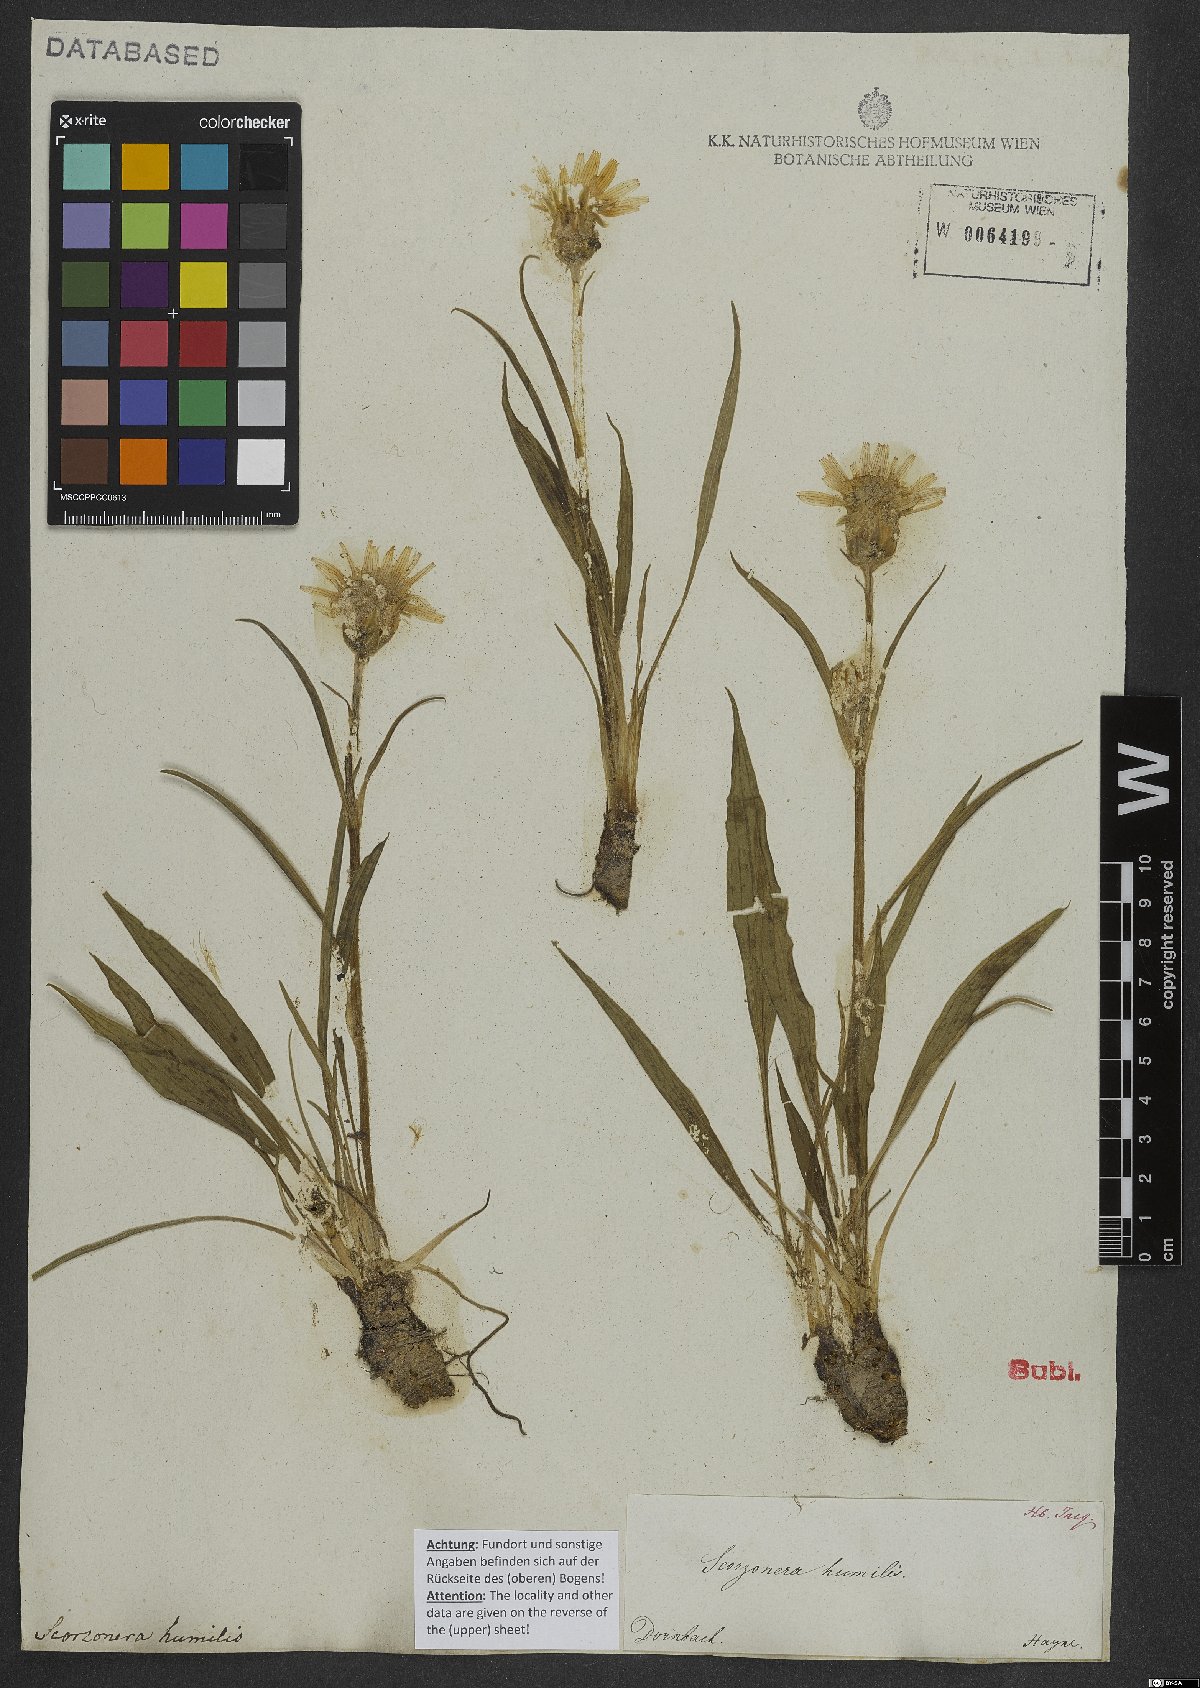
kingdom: Plantae
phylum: Tracheophyta
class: Magnoliopsida
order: Asterales
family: Asteraceae
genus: Scorzonera
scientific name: Scorzonera humilis
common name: Viper's-grass
